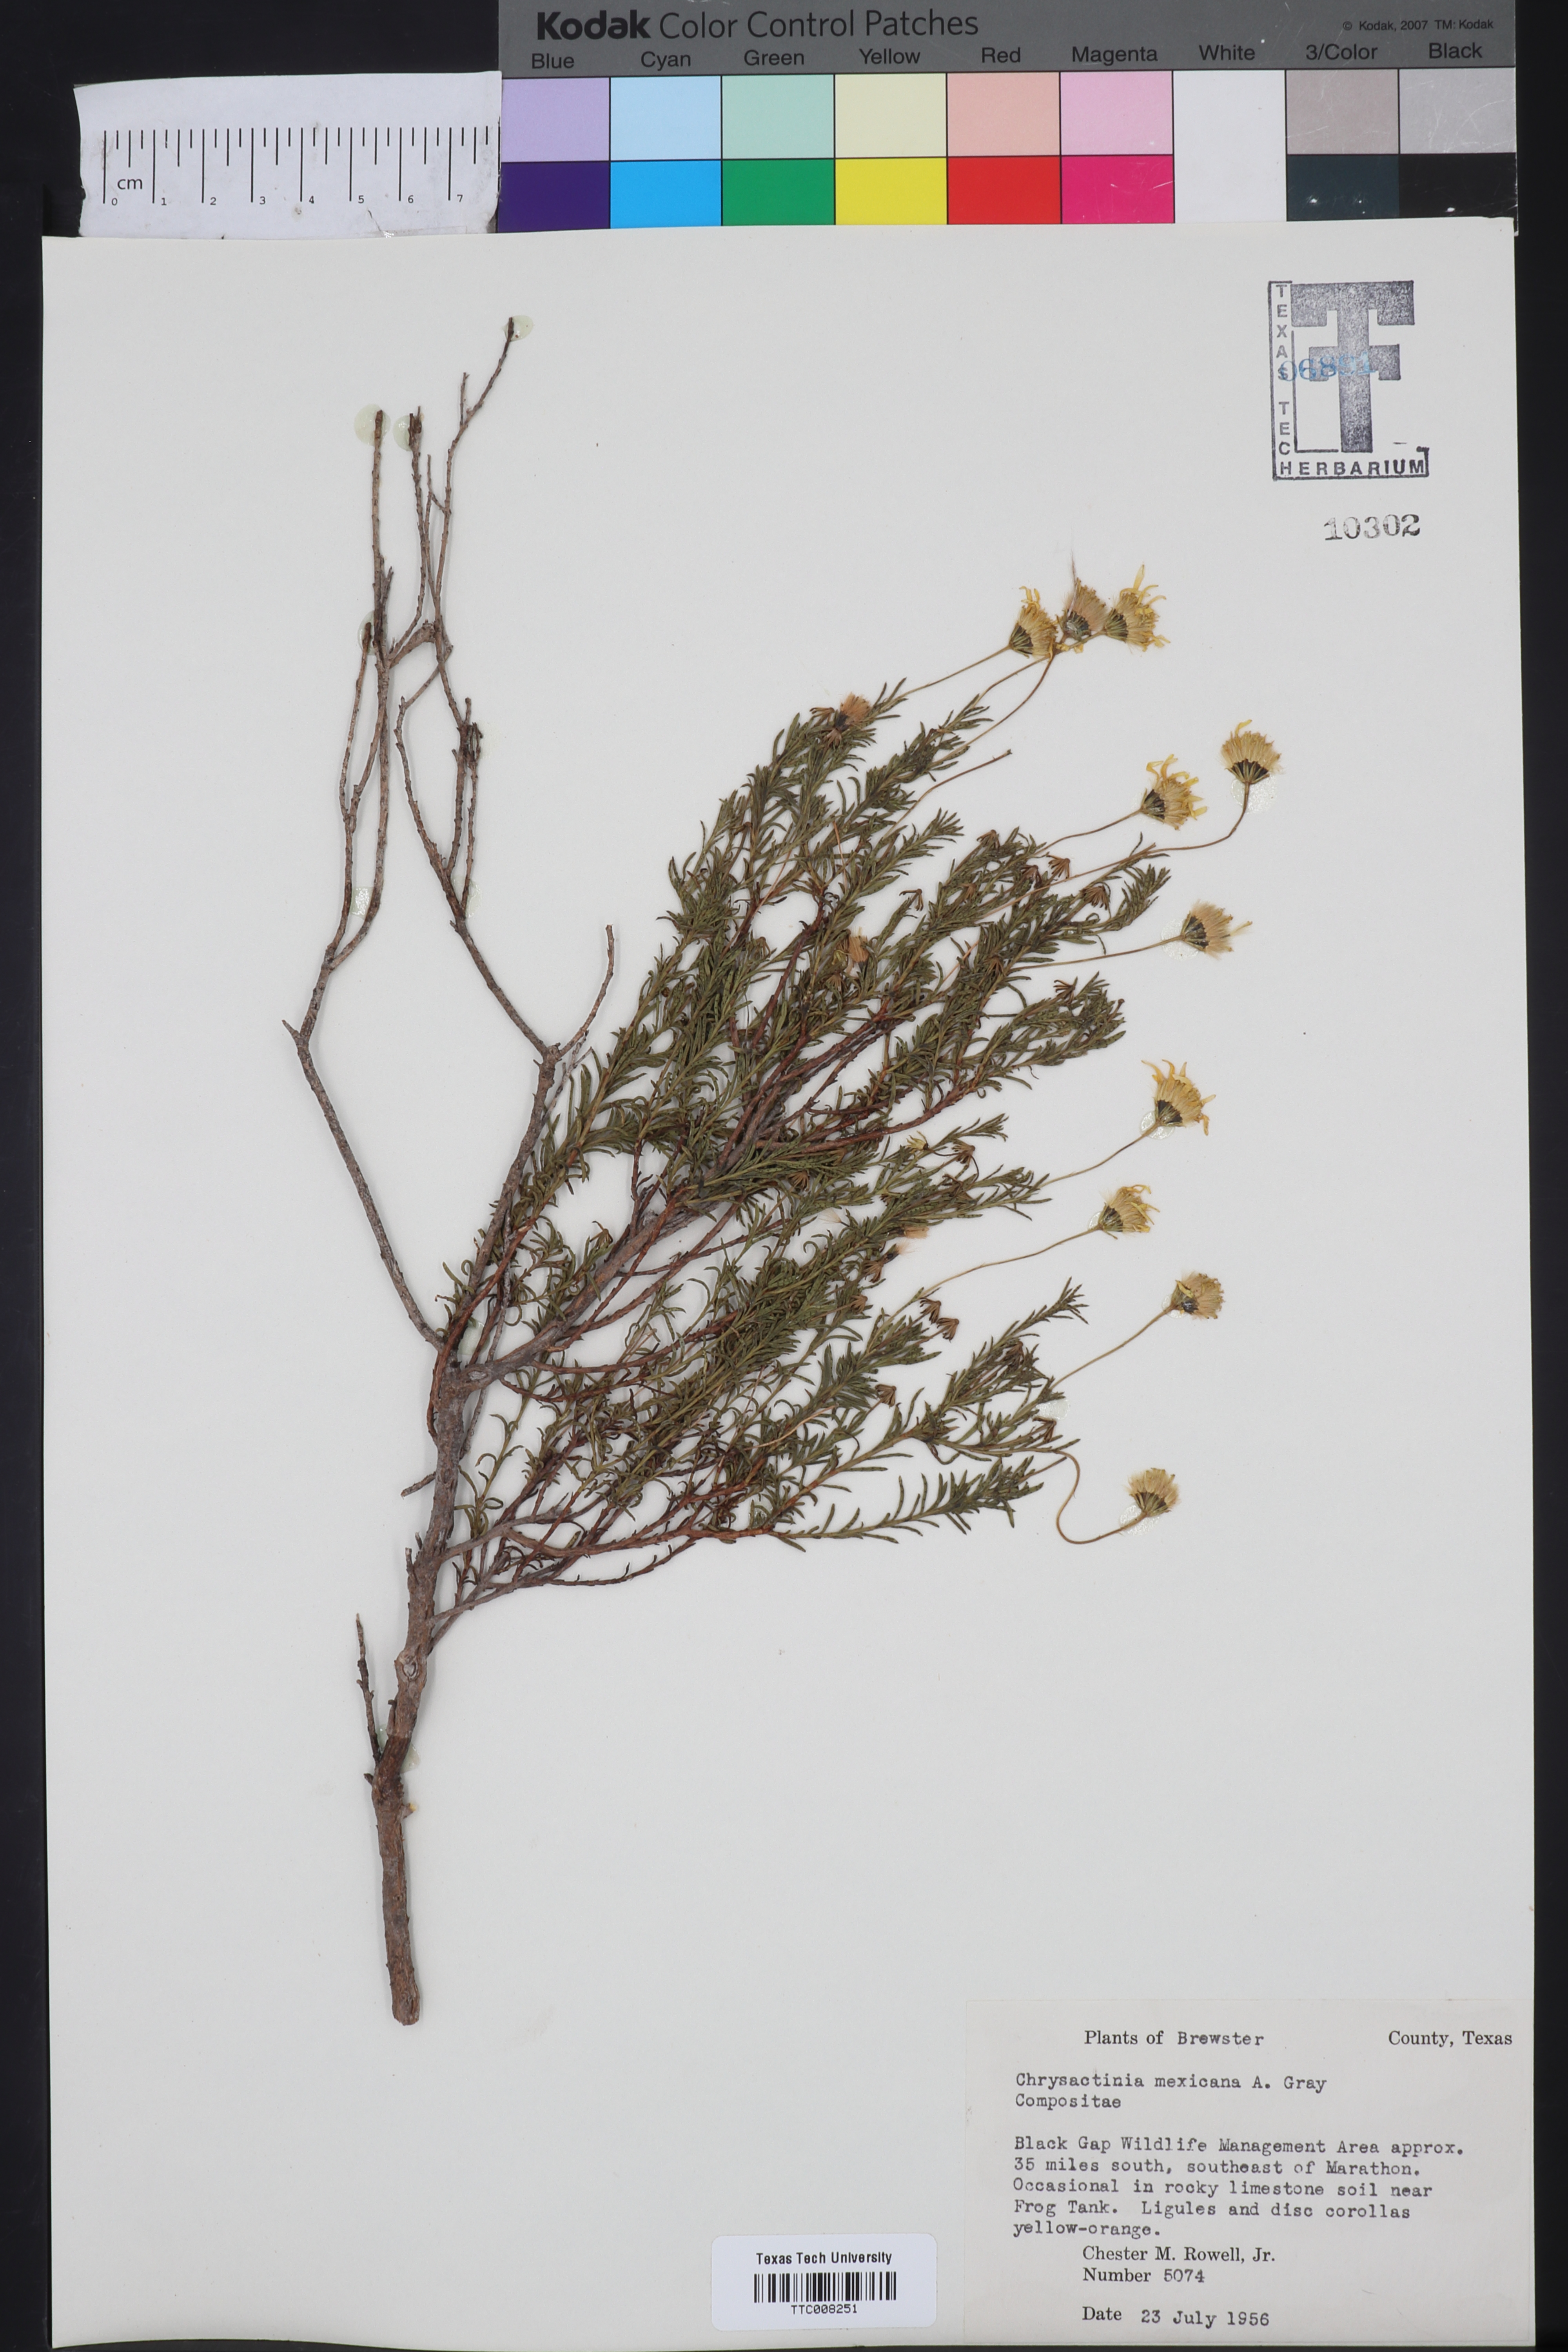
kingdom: Plantae
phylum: Tracheophyta
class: Magnoliopsida
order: Asterales
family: Asteraceae
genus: Chrysactinia
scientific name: Chrysactinia mexicana
